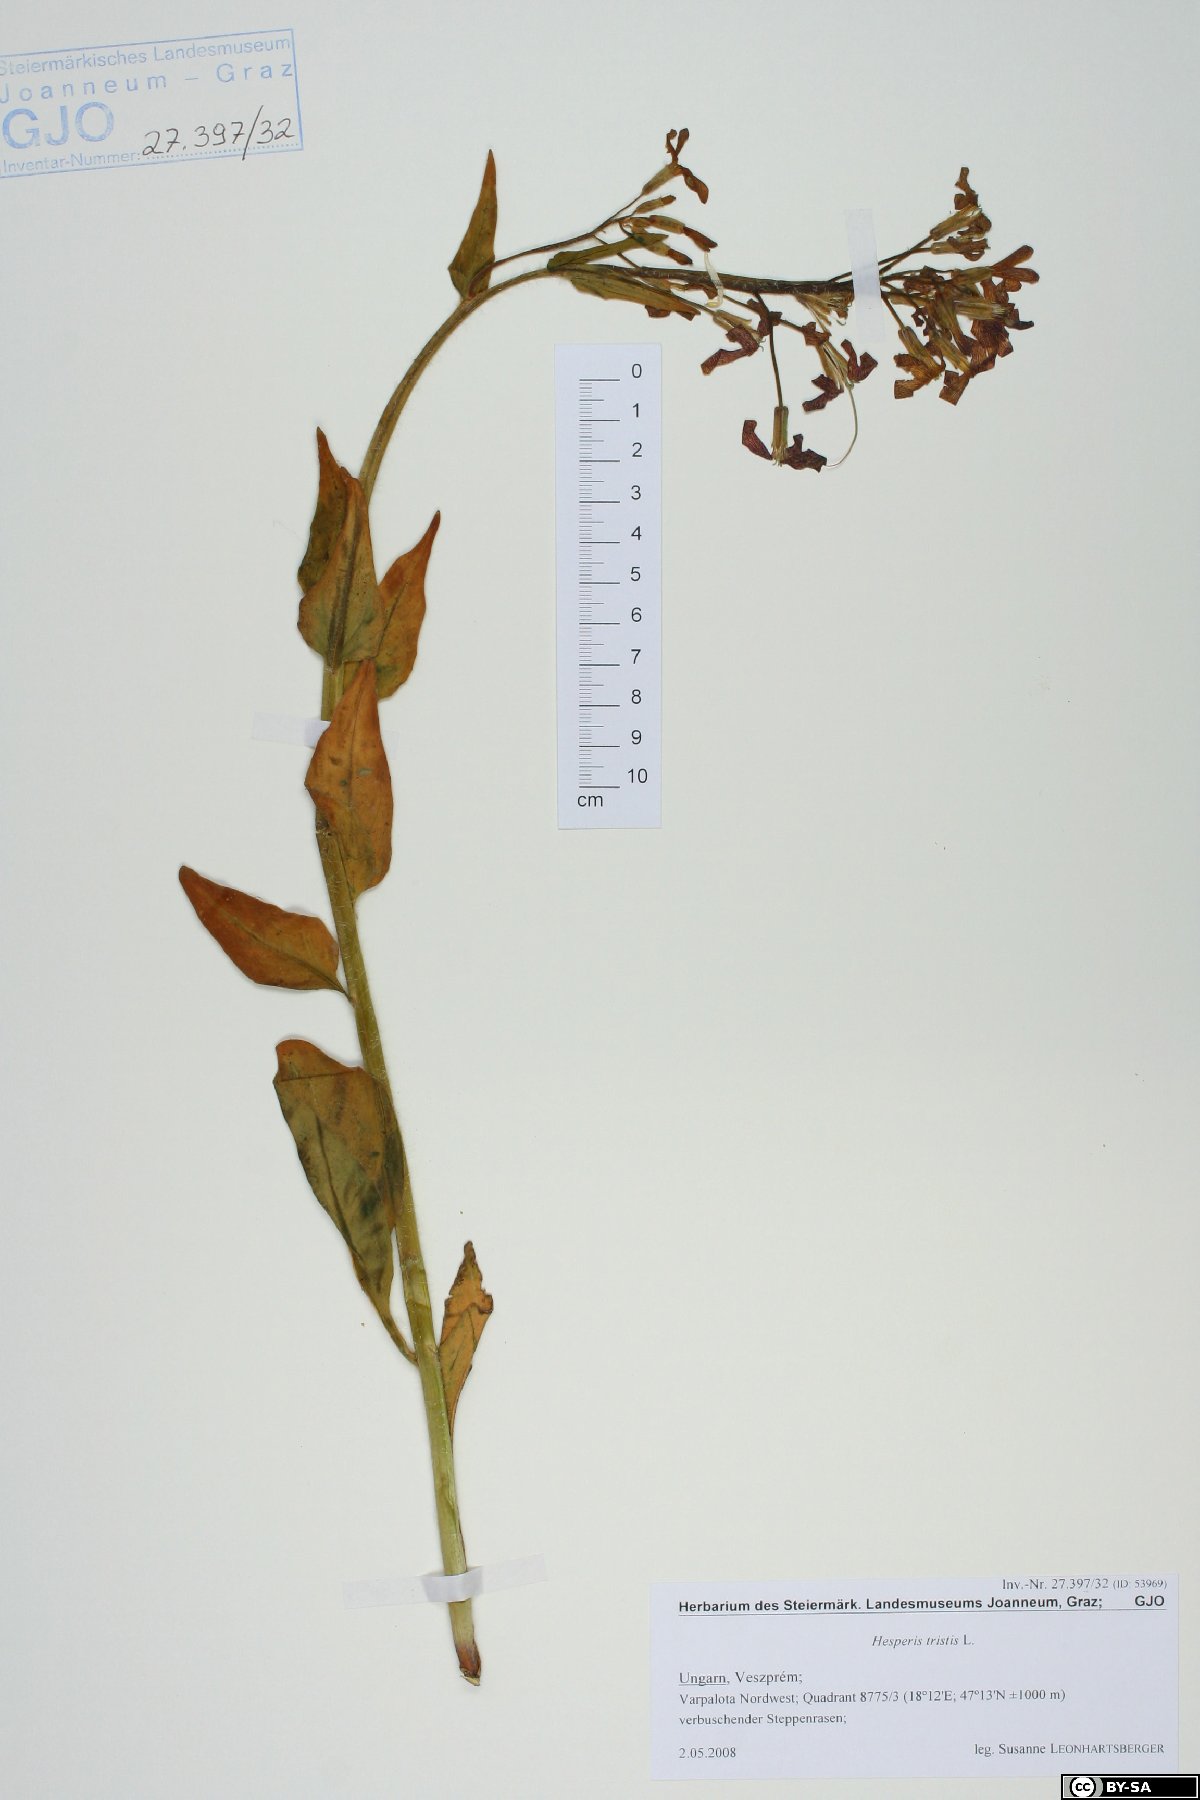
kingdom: Plantae
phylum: Tracheophyta
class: Magnoliopsida
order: Brassicales
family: Brassicaceae
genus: Hesperis
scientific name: Hesperis tristis
